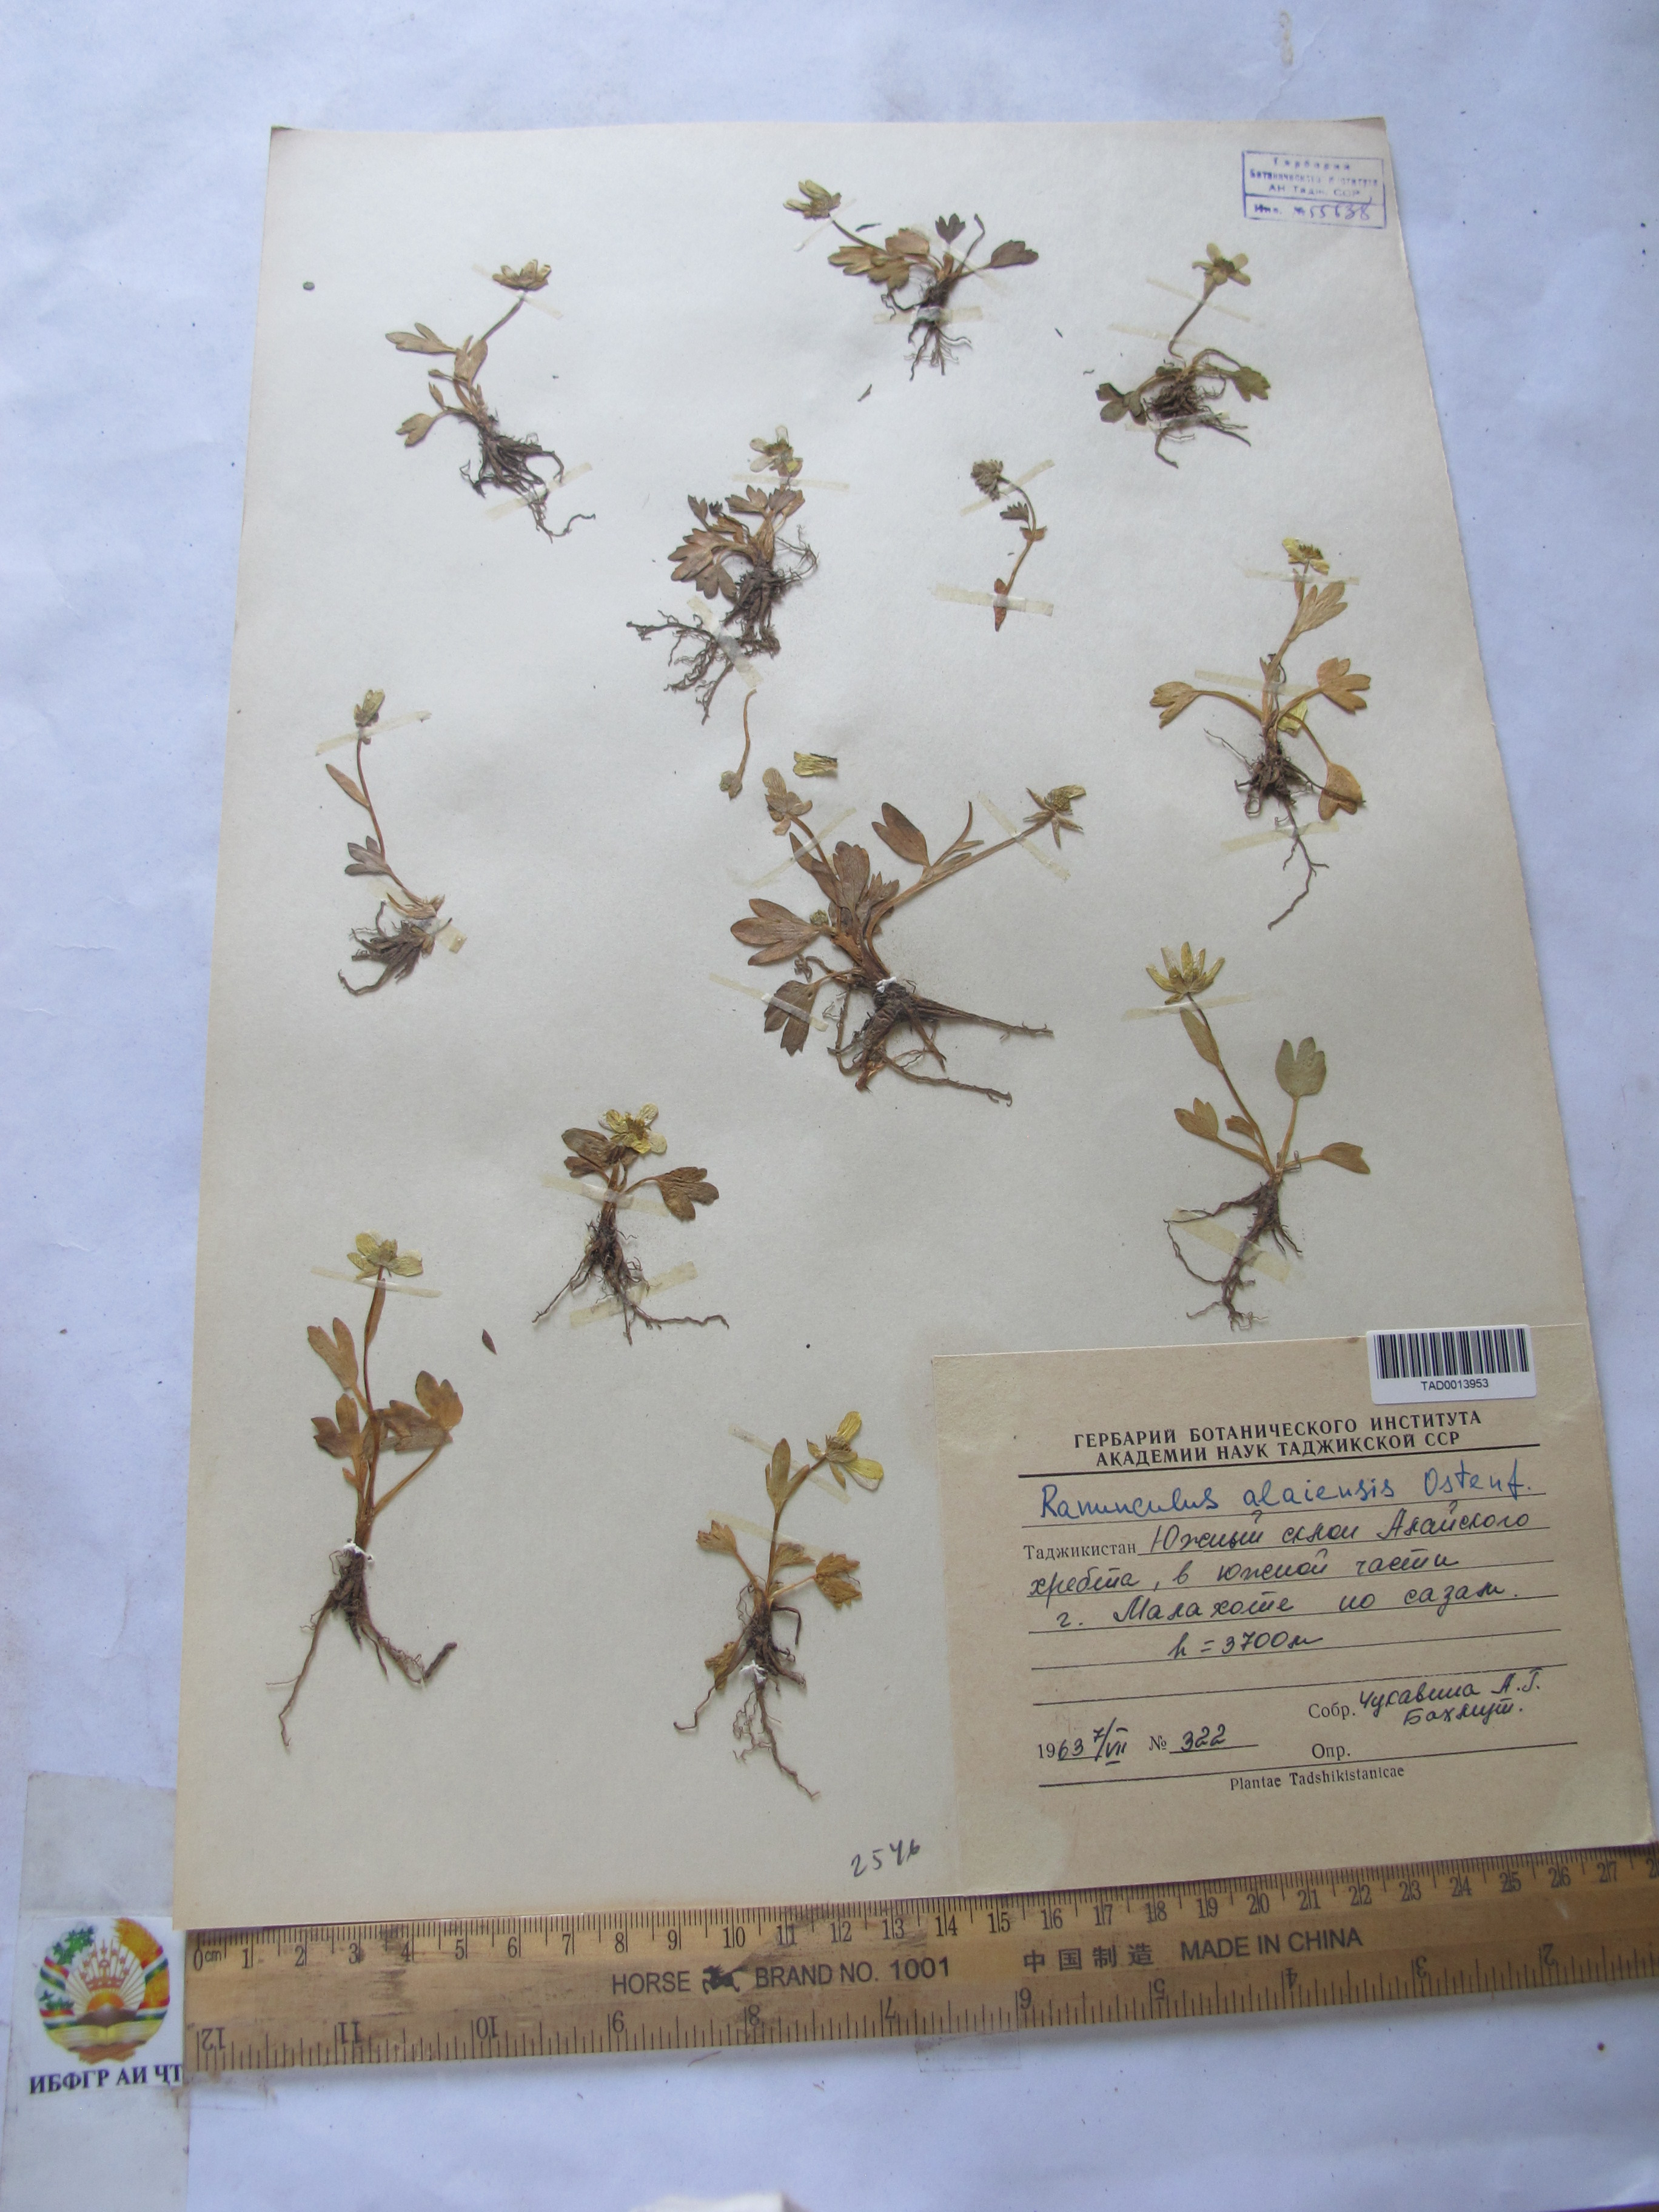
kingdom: Plantae
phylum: Tracheophyta
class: Magnoliopsida
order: Ranunculales
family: Ranunculaceae
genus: Ranunculus
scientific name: Ranunculus alaiensis
